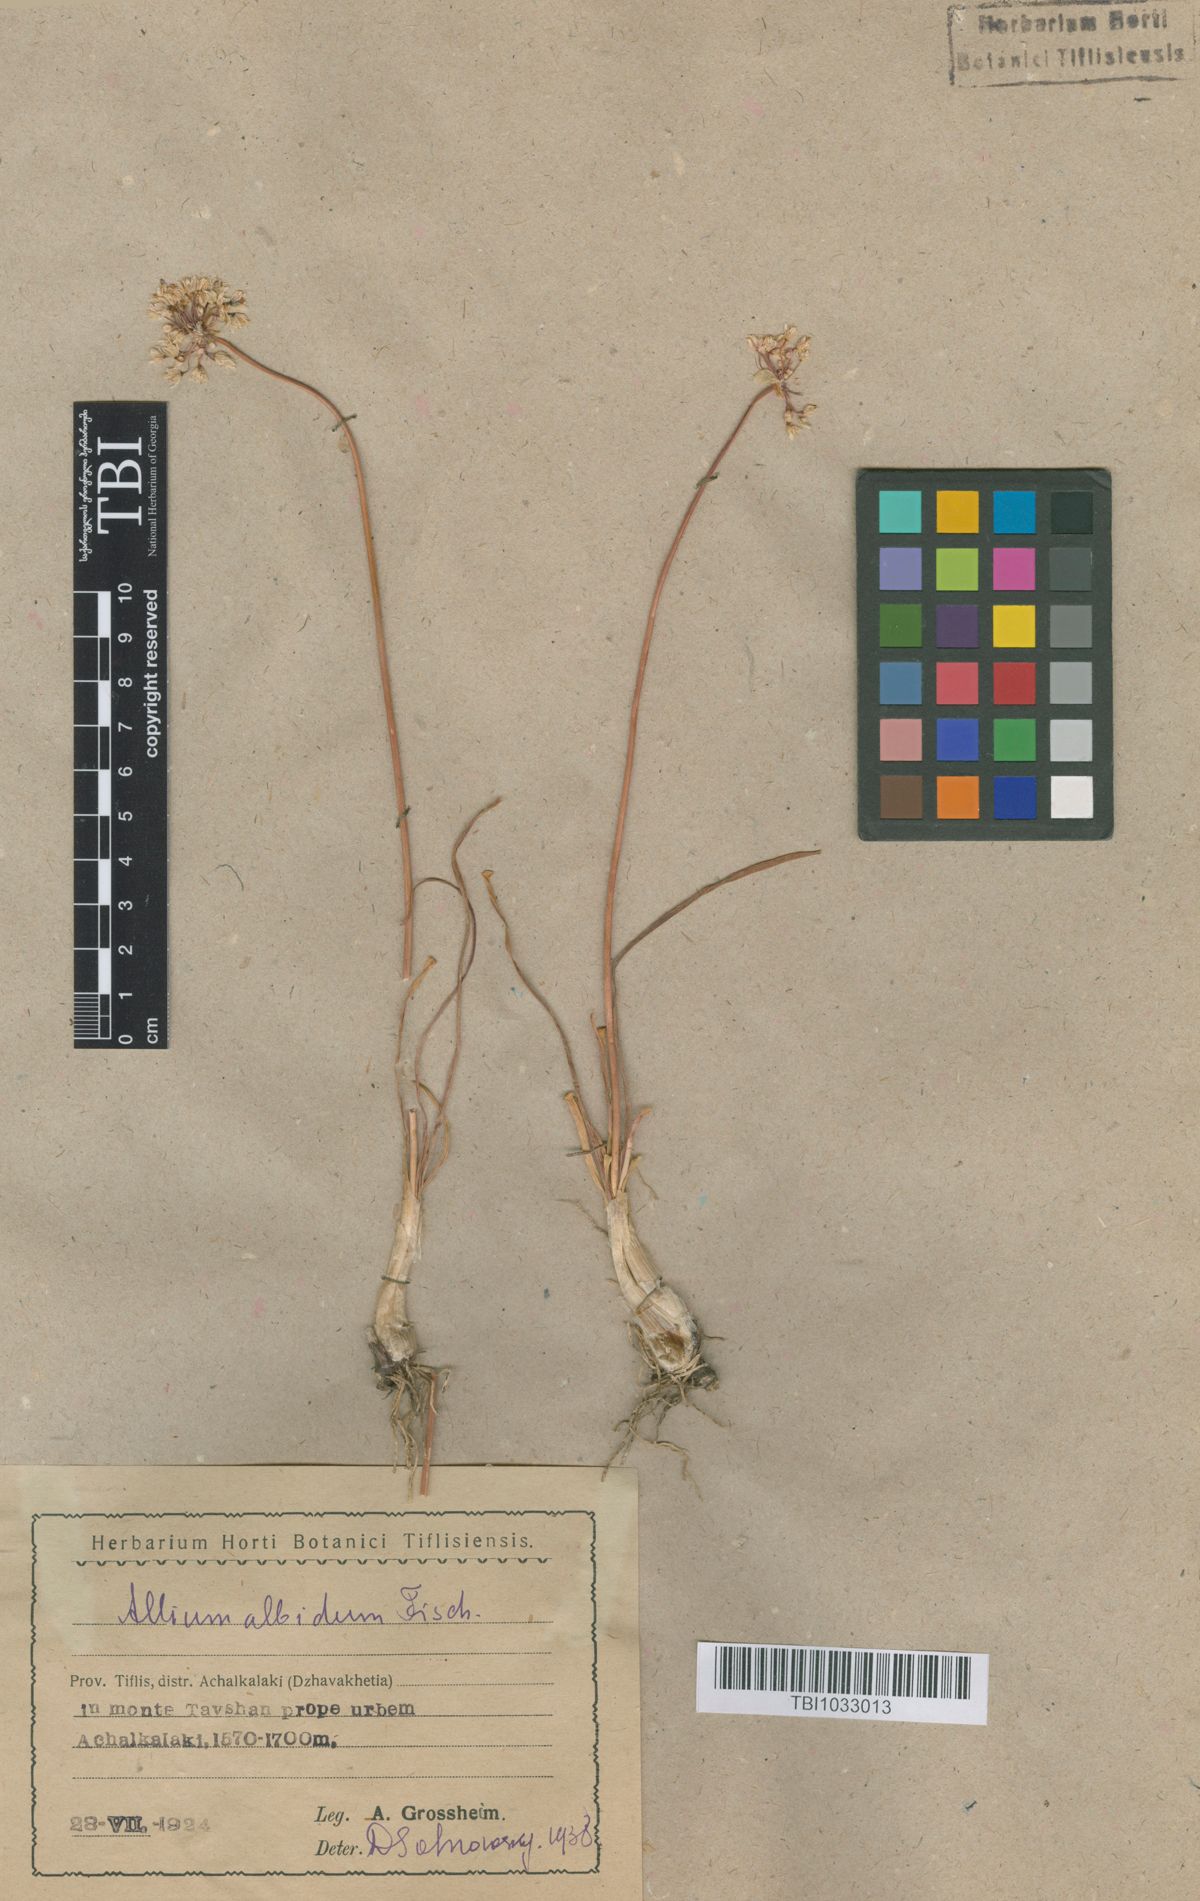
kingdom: Plantae
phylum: Tracheophyta
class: Liliopsida
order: Asparagales
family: Amaryllidaceae
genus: Allium
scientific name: Allium denudatum
